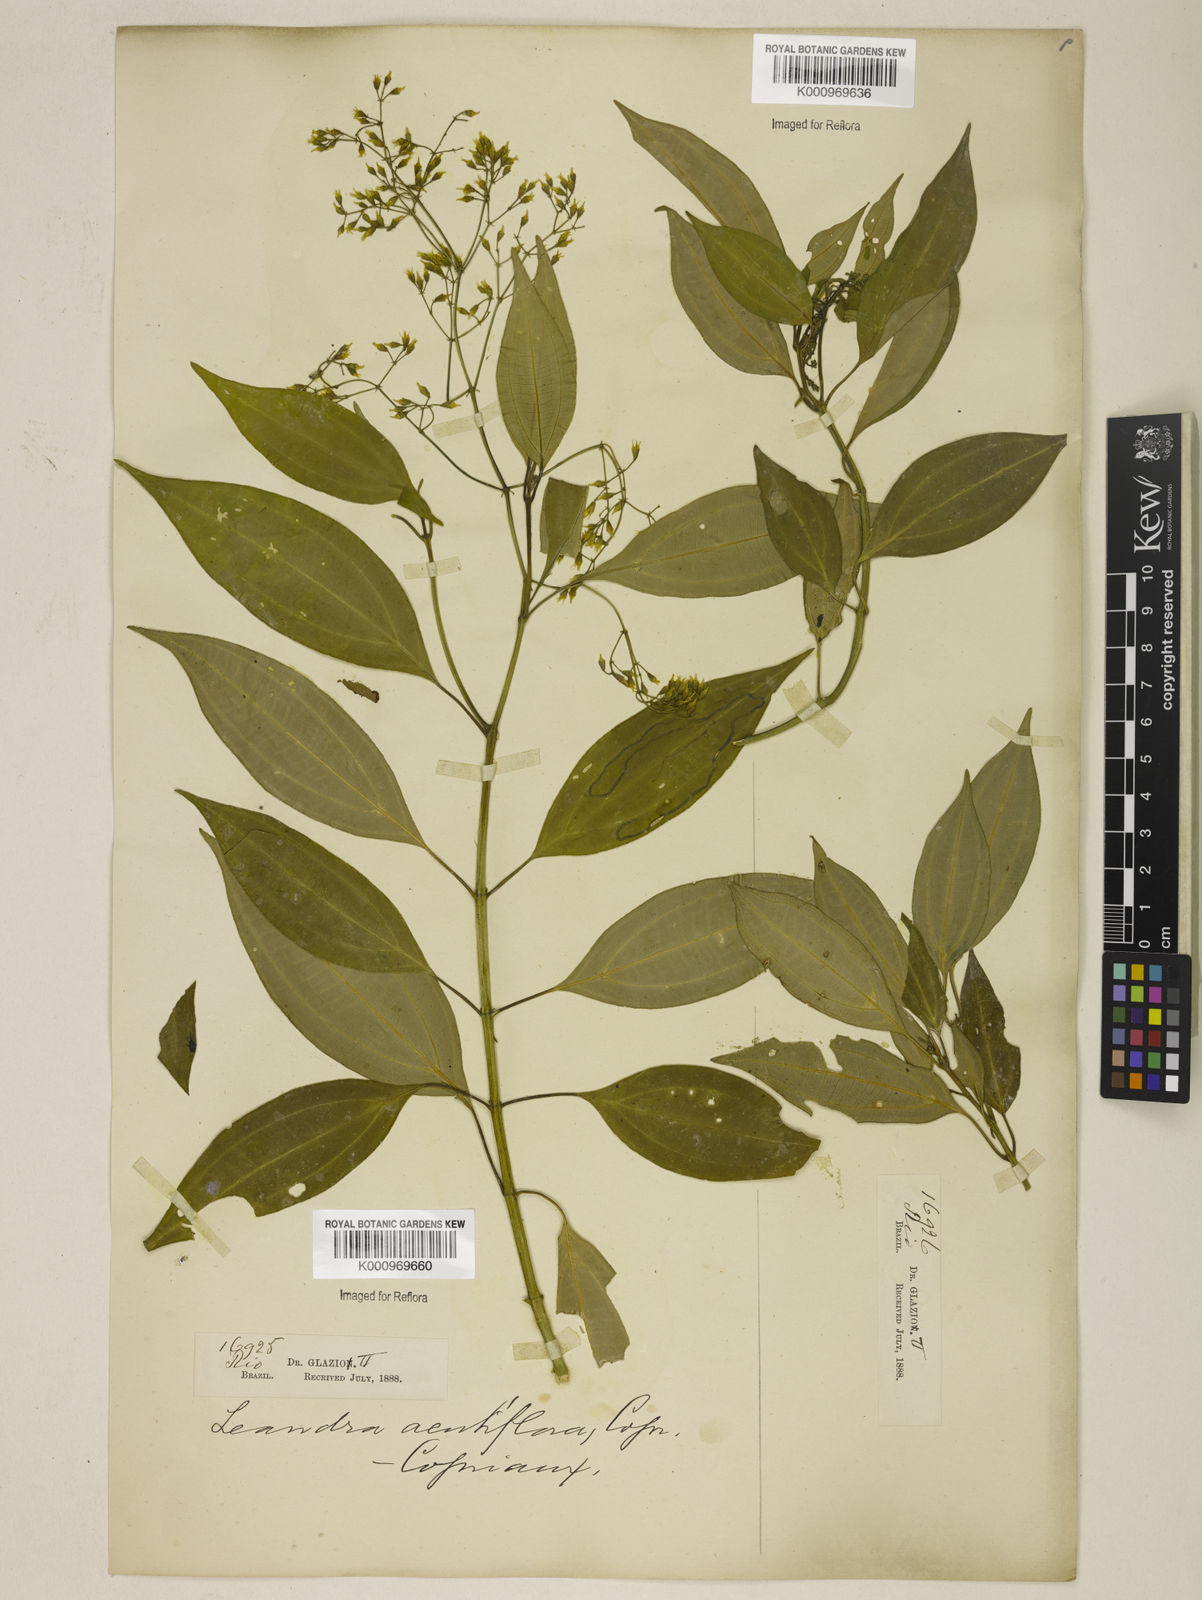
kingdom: Plantae
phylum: Tracheophyta
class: Magnoliopsida
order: Myrtales
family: Melastomataceae
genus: Miconia
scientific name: Miconia acutiflora
